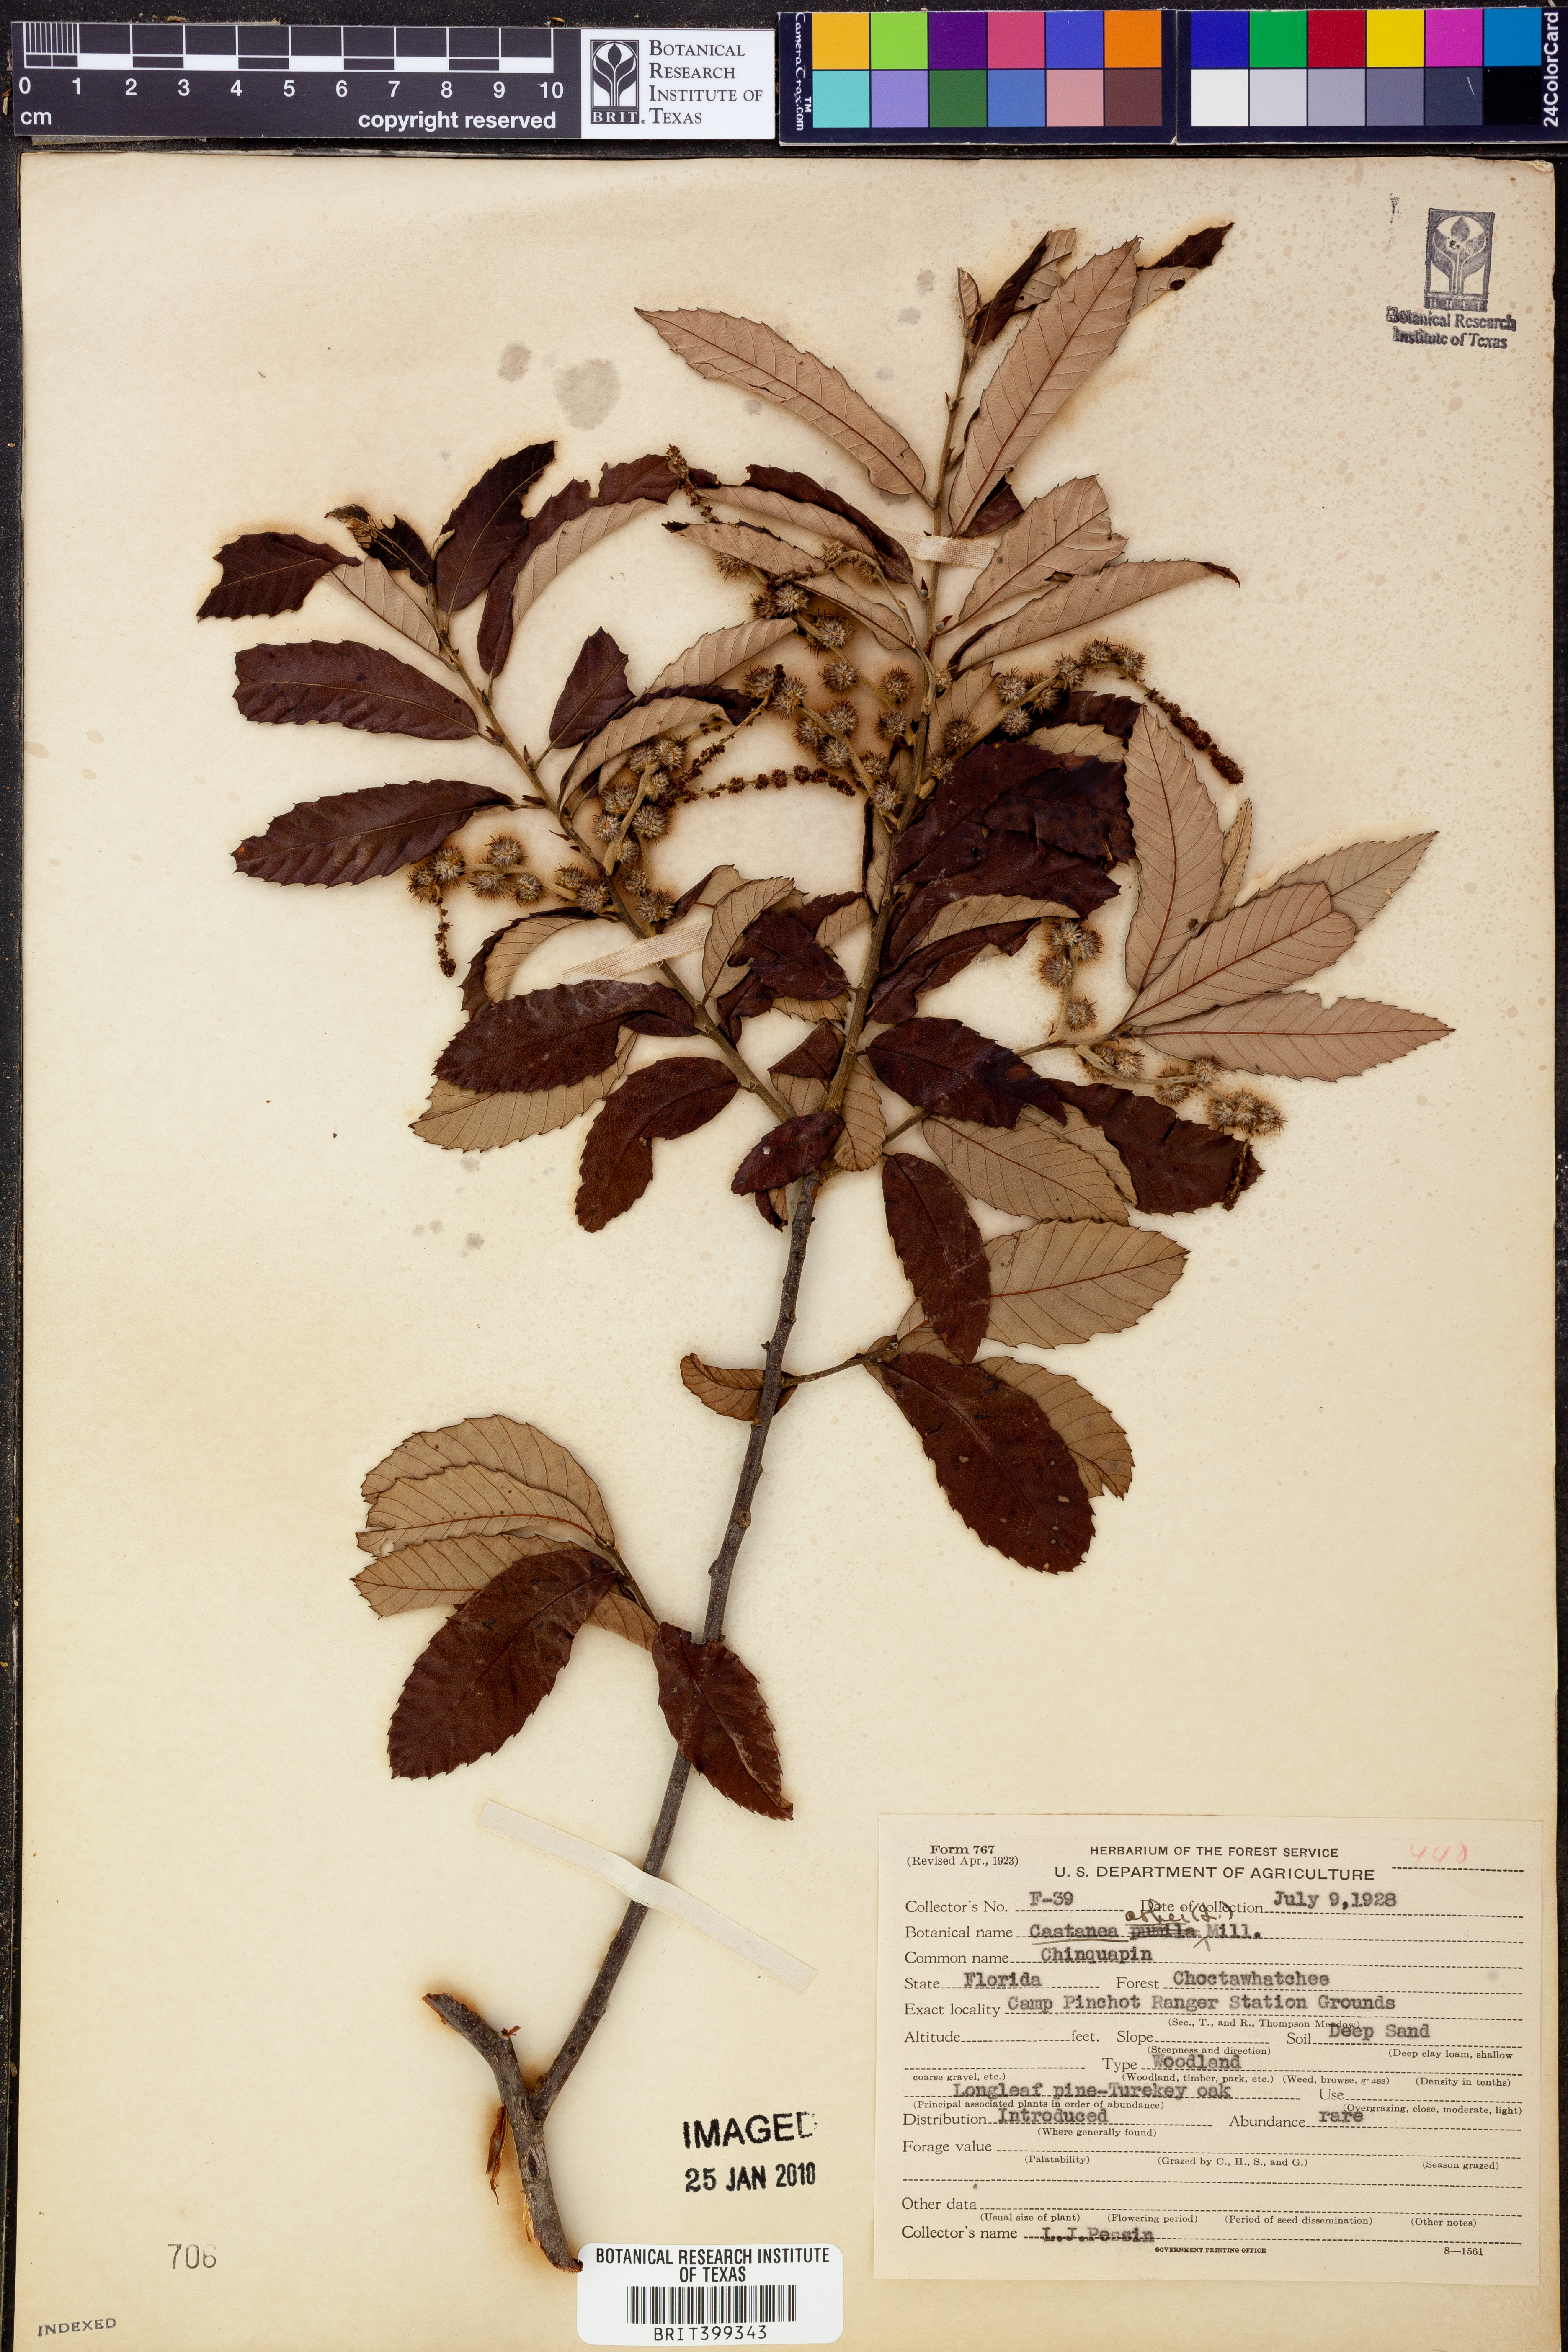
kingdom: Plantae
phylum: Tracheophyta
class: Magnoliopsida
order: Fagales
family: Fagaceae
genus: Castanea
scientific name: Castanea pumila
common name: Chinkapin
